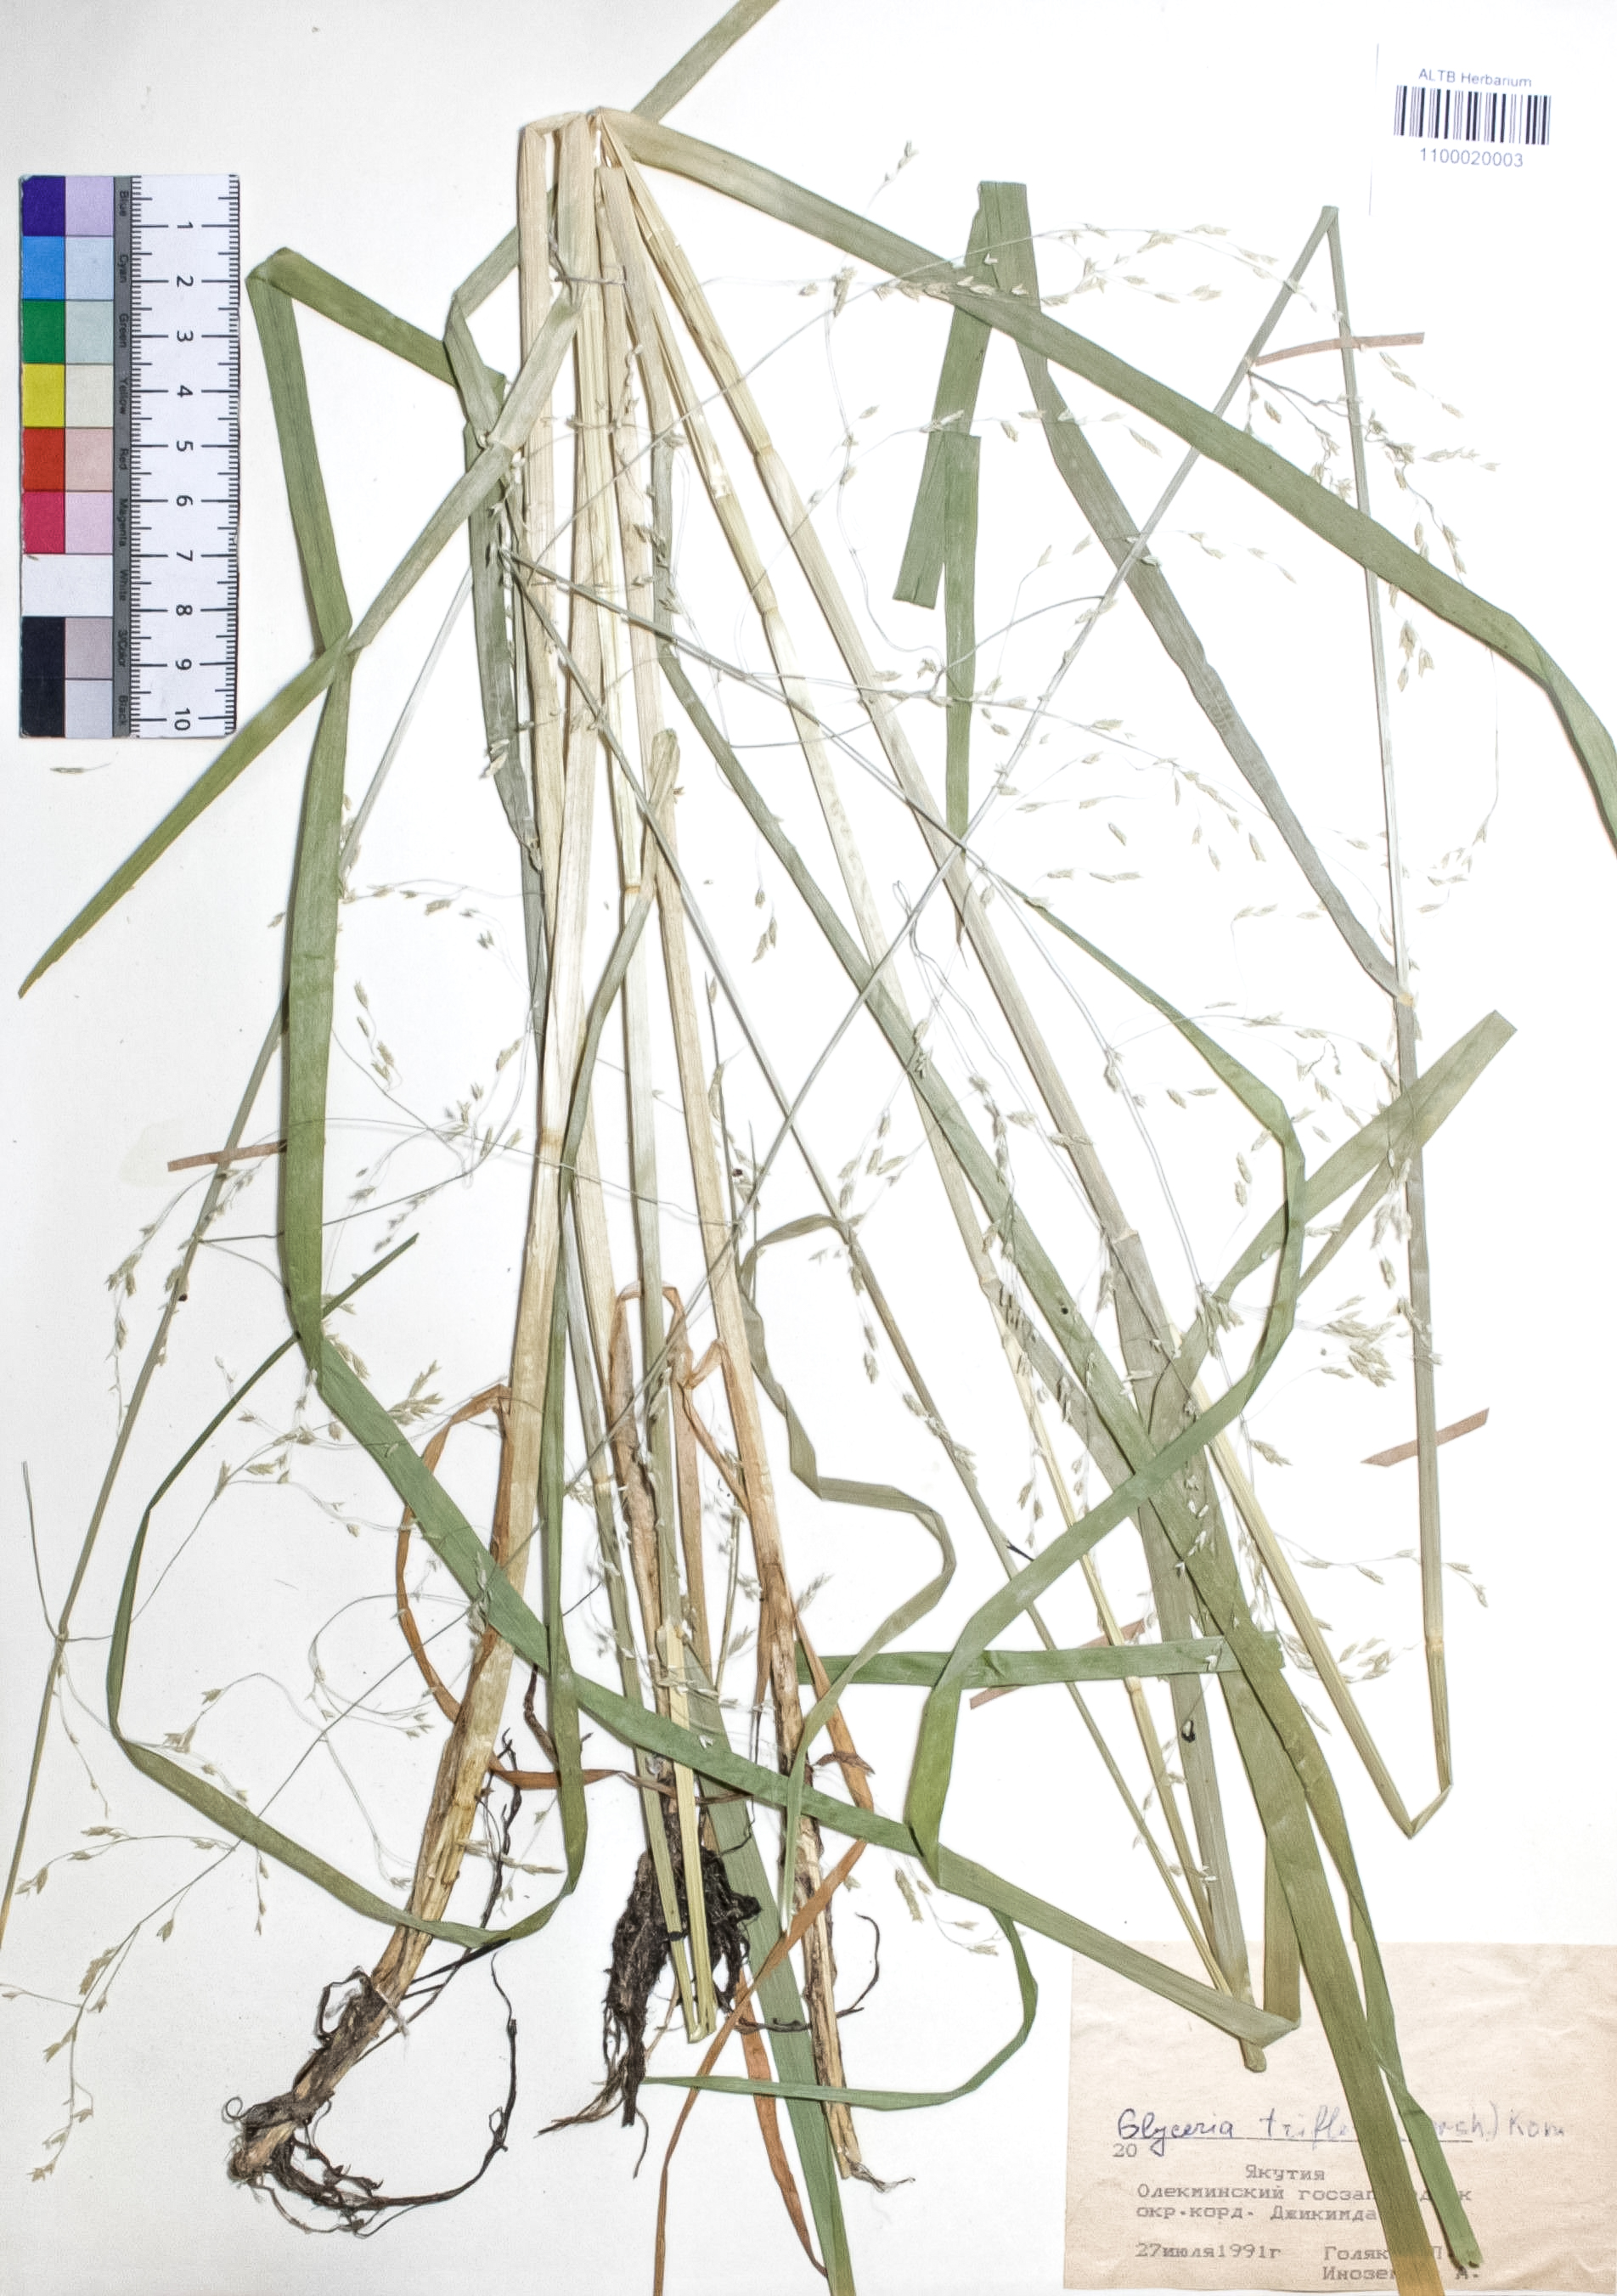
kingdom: Plantae
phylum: Tracheophyta
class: Liliopsida
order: Poales
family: Poaceae
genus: Glyceria
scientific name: Glyceria lithuanica
